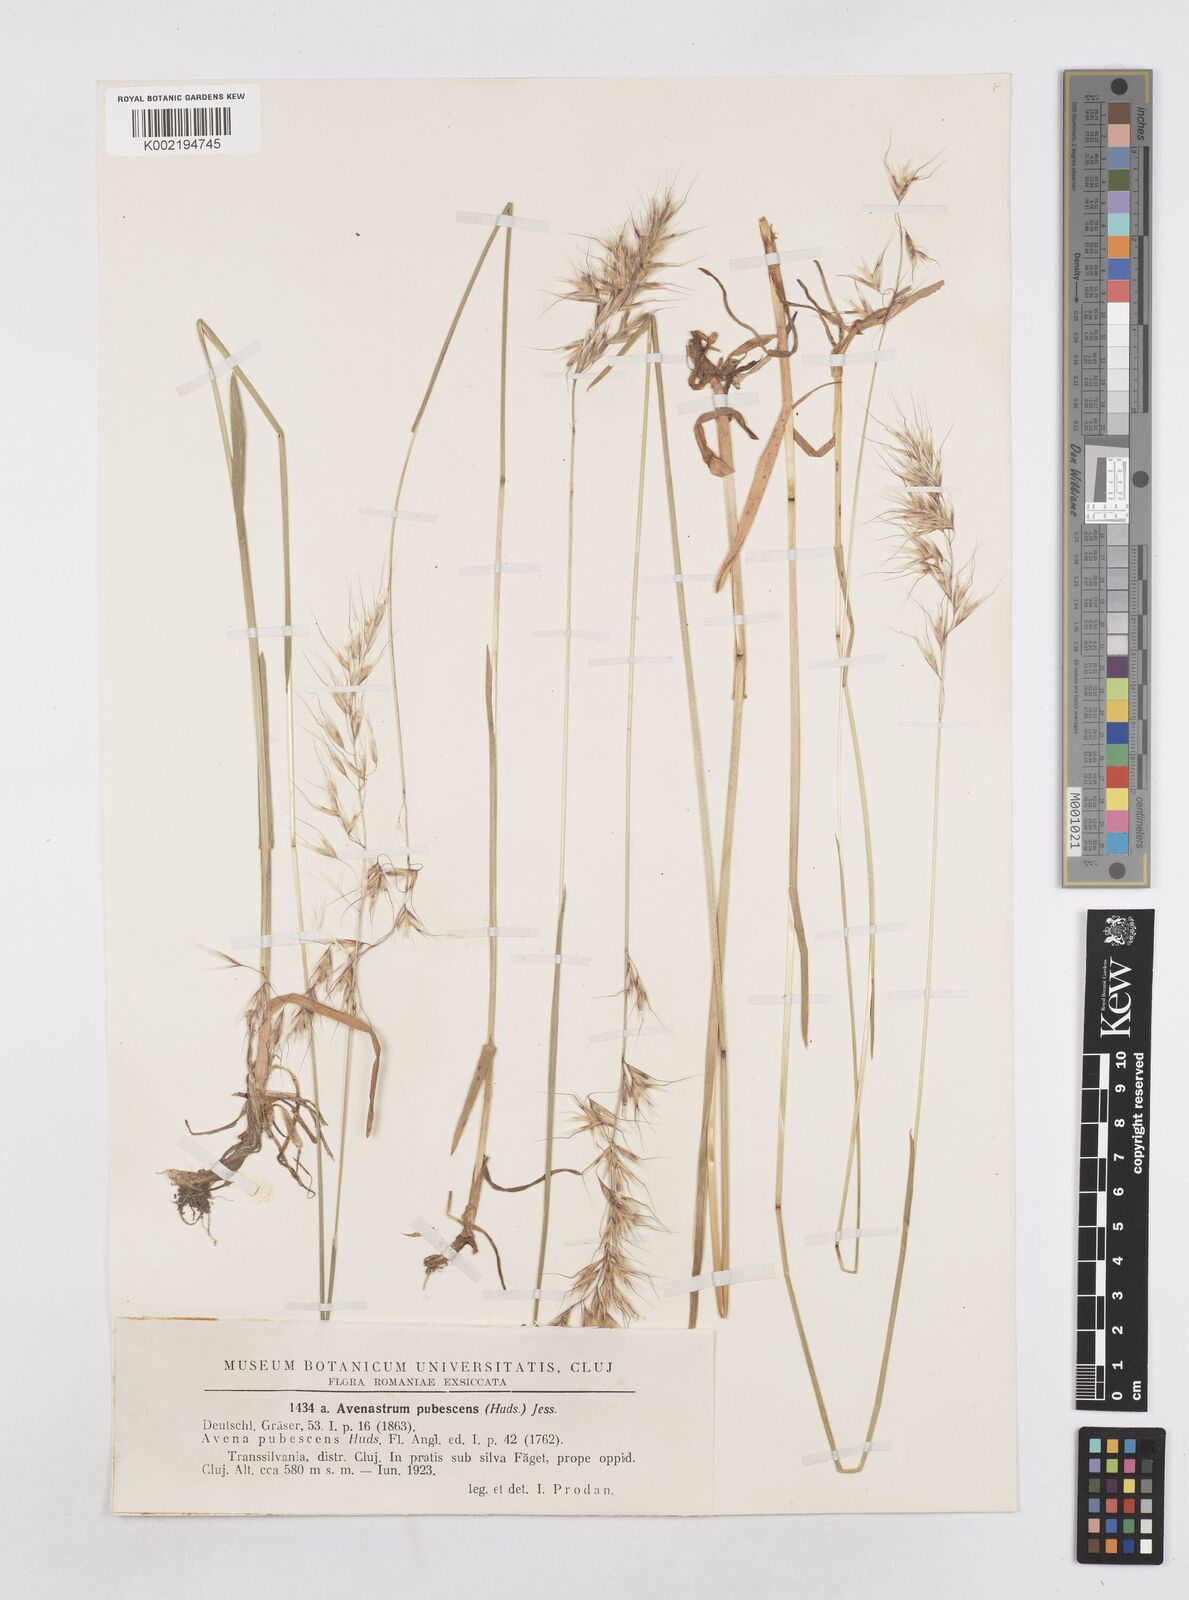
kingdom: Plantae
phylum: Tracheophyta
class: Liliopsida
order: Poales
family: Poaceae
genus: Avenula
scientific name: Avenula pubescens
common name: Downy alpine oatgrass
